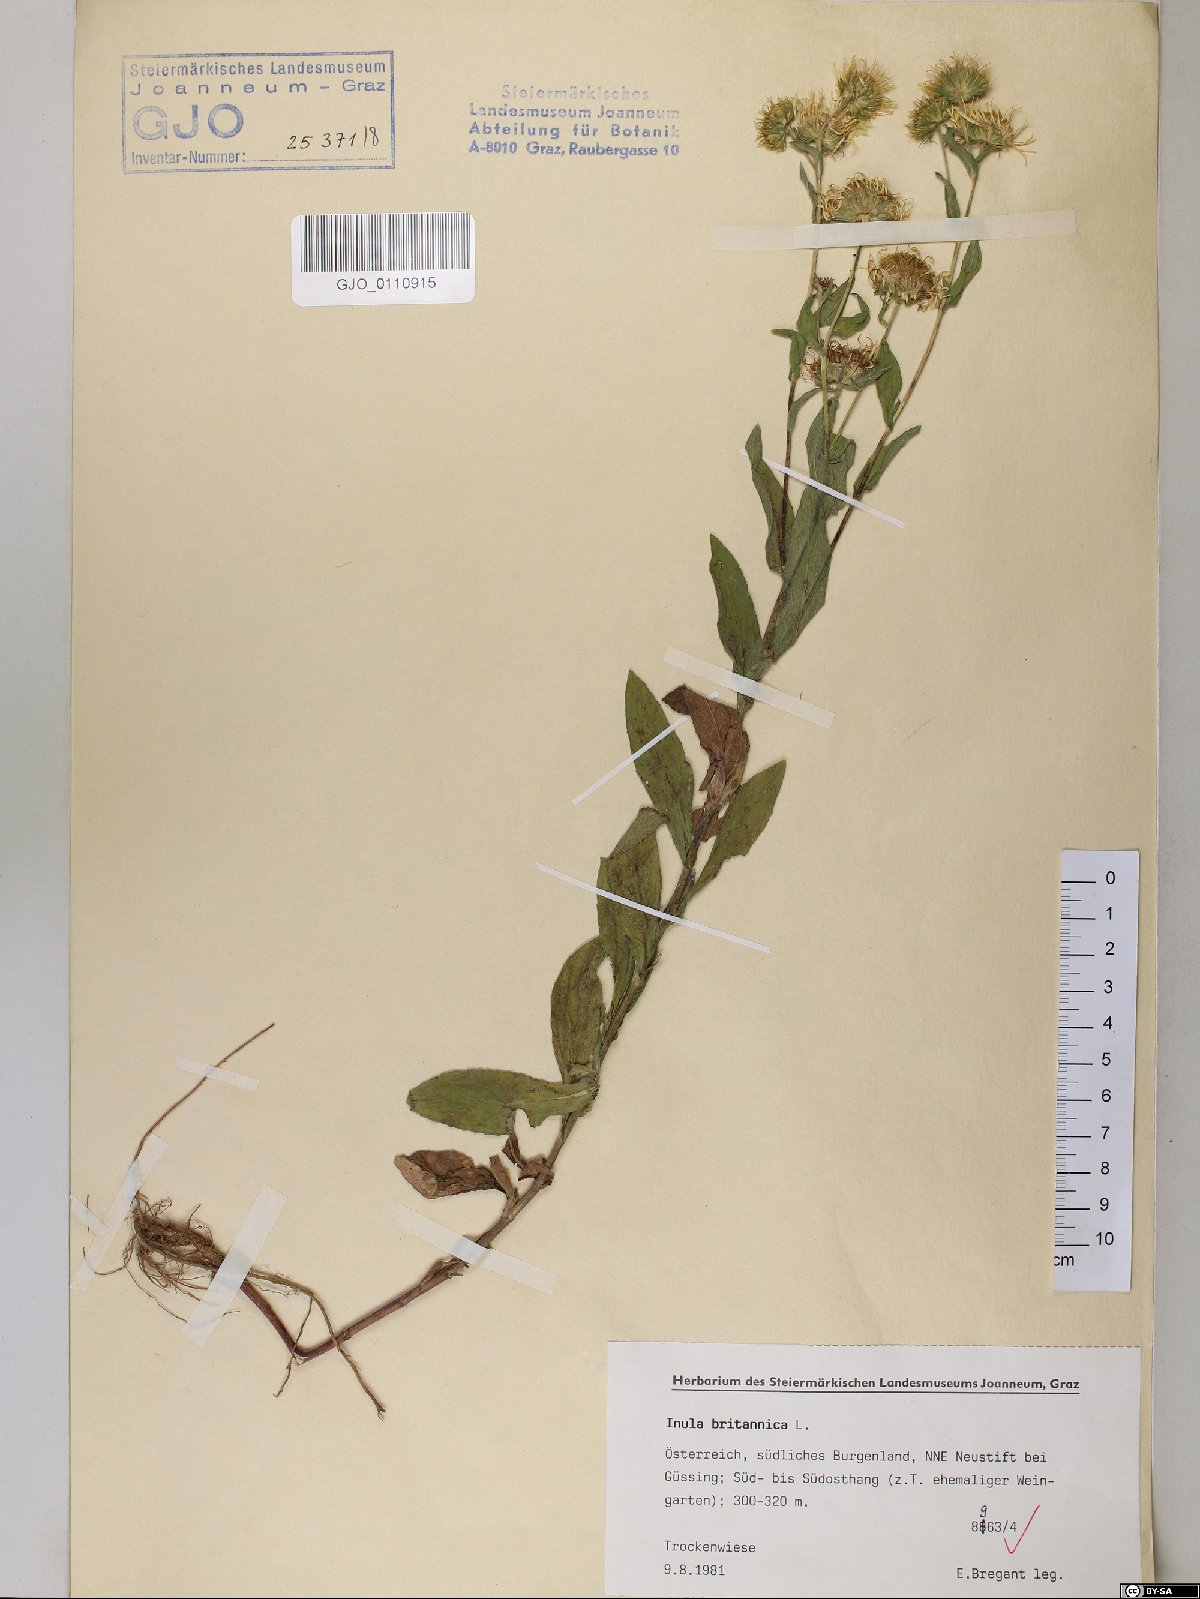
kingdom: Plantae
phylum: Tracheophyta
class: Magnoliopsida
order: Asterales
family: Asteraceae
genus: Pentanema
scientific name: Pentanema britannicum
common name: British elecampane
